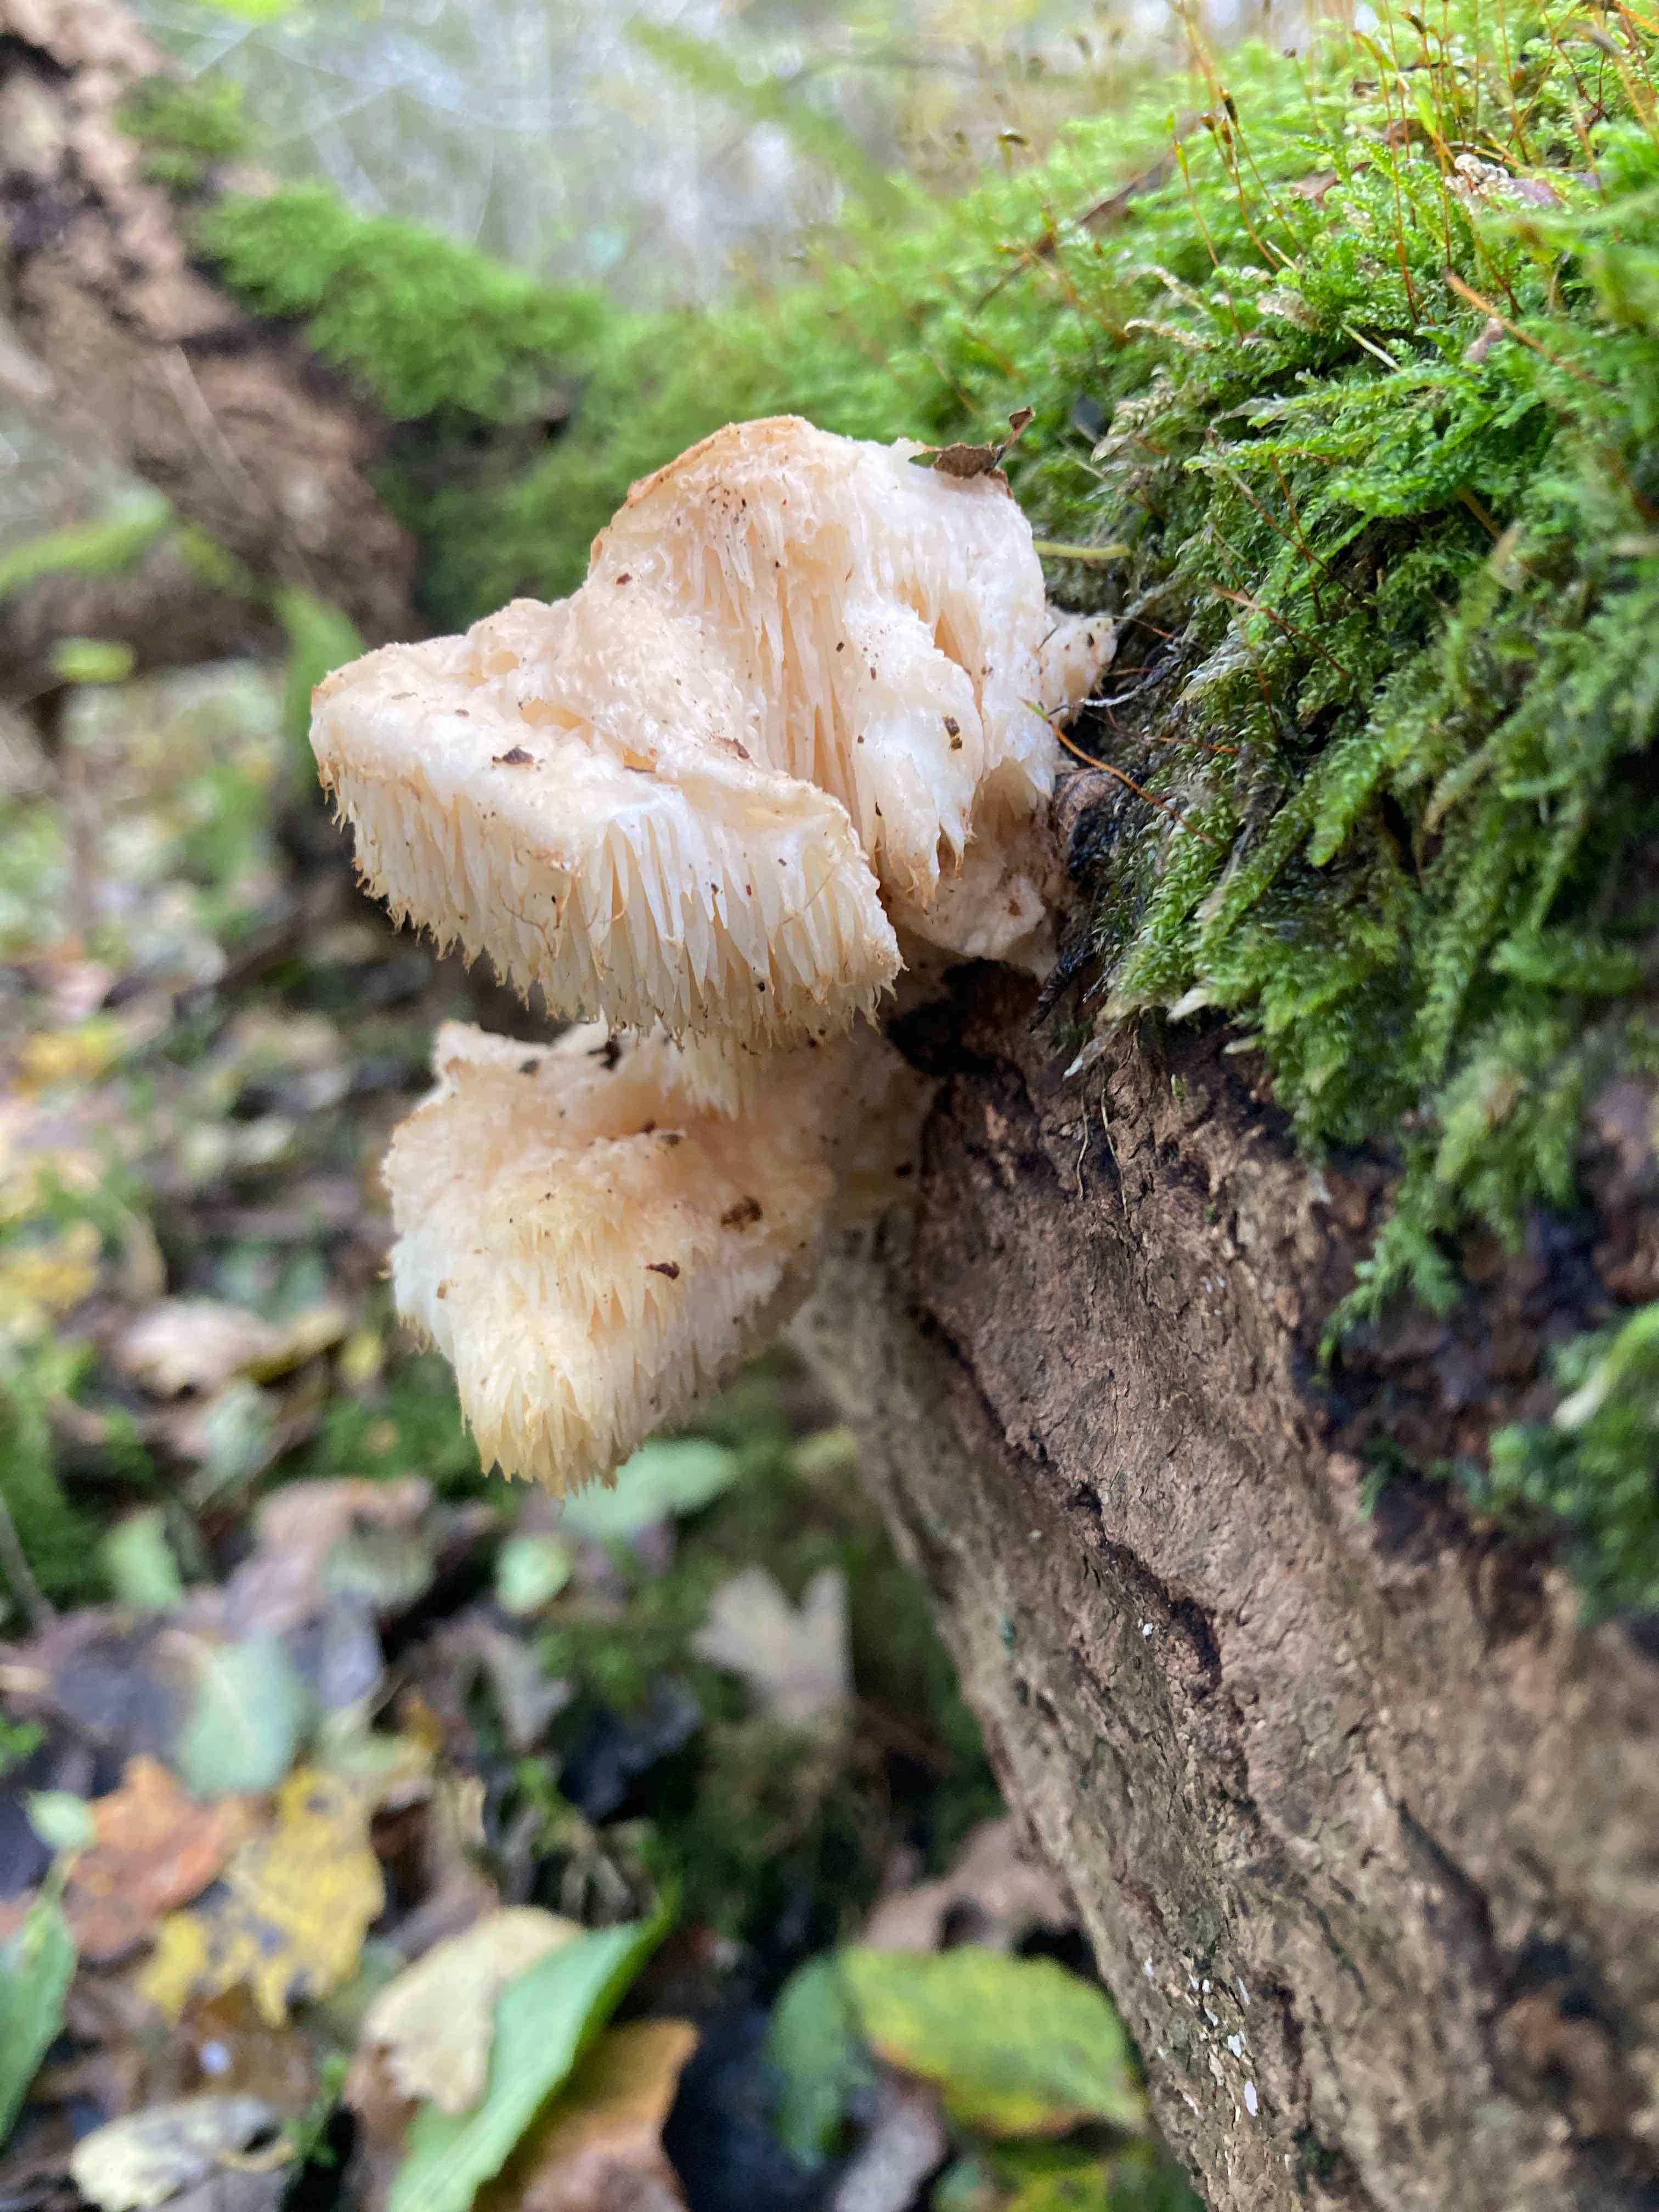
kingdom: Fungi
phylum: Basidiomycota
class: Agaricomycetes
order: Russulales
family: Hericiaceae
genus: Hericium
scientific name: Hericium cirrhatum
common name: børstepigsvamp
